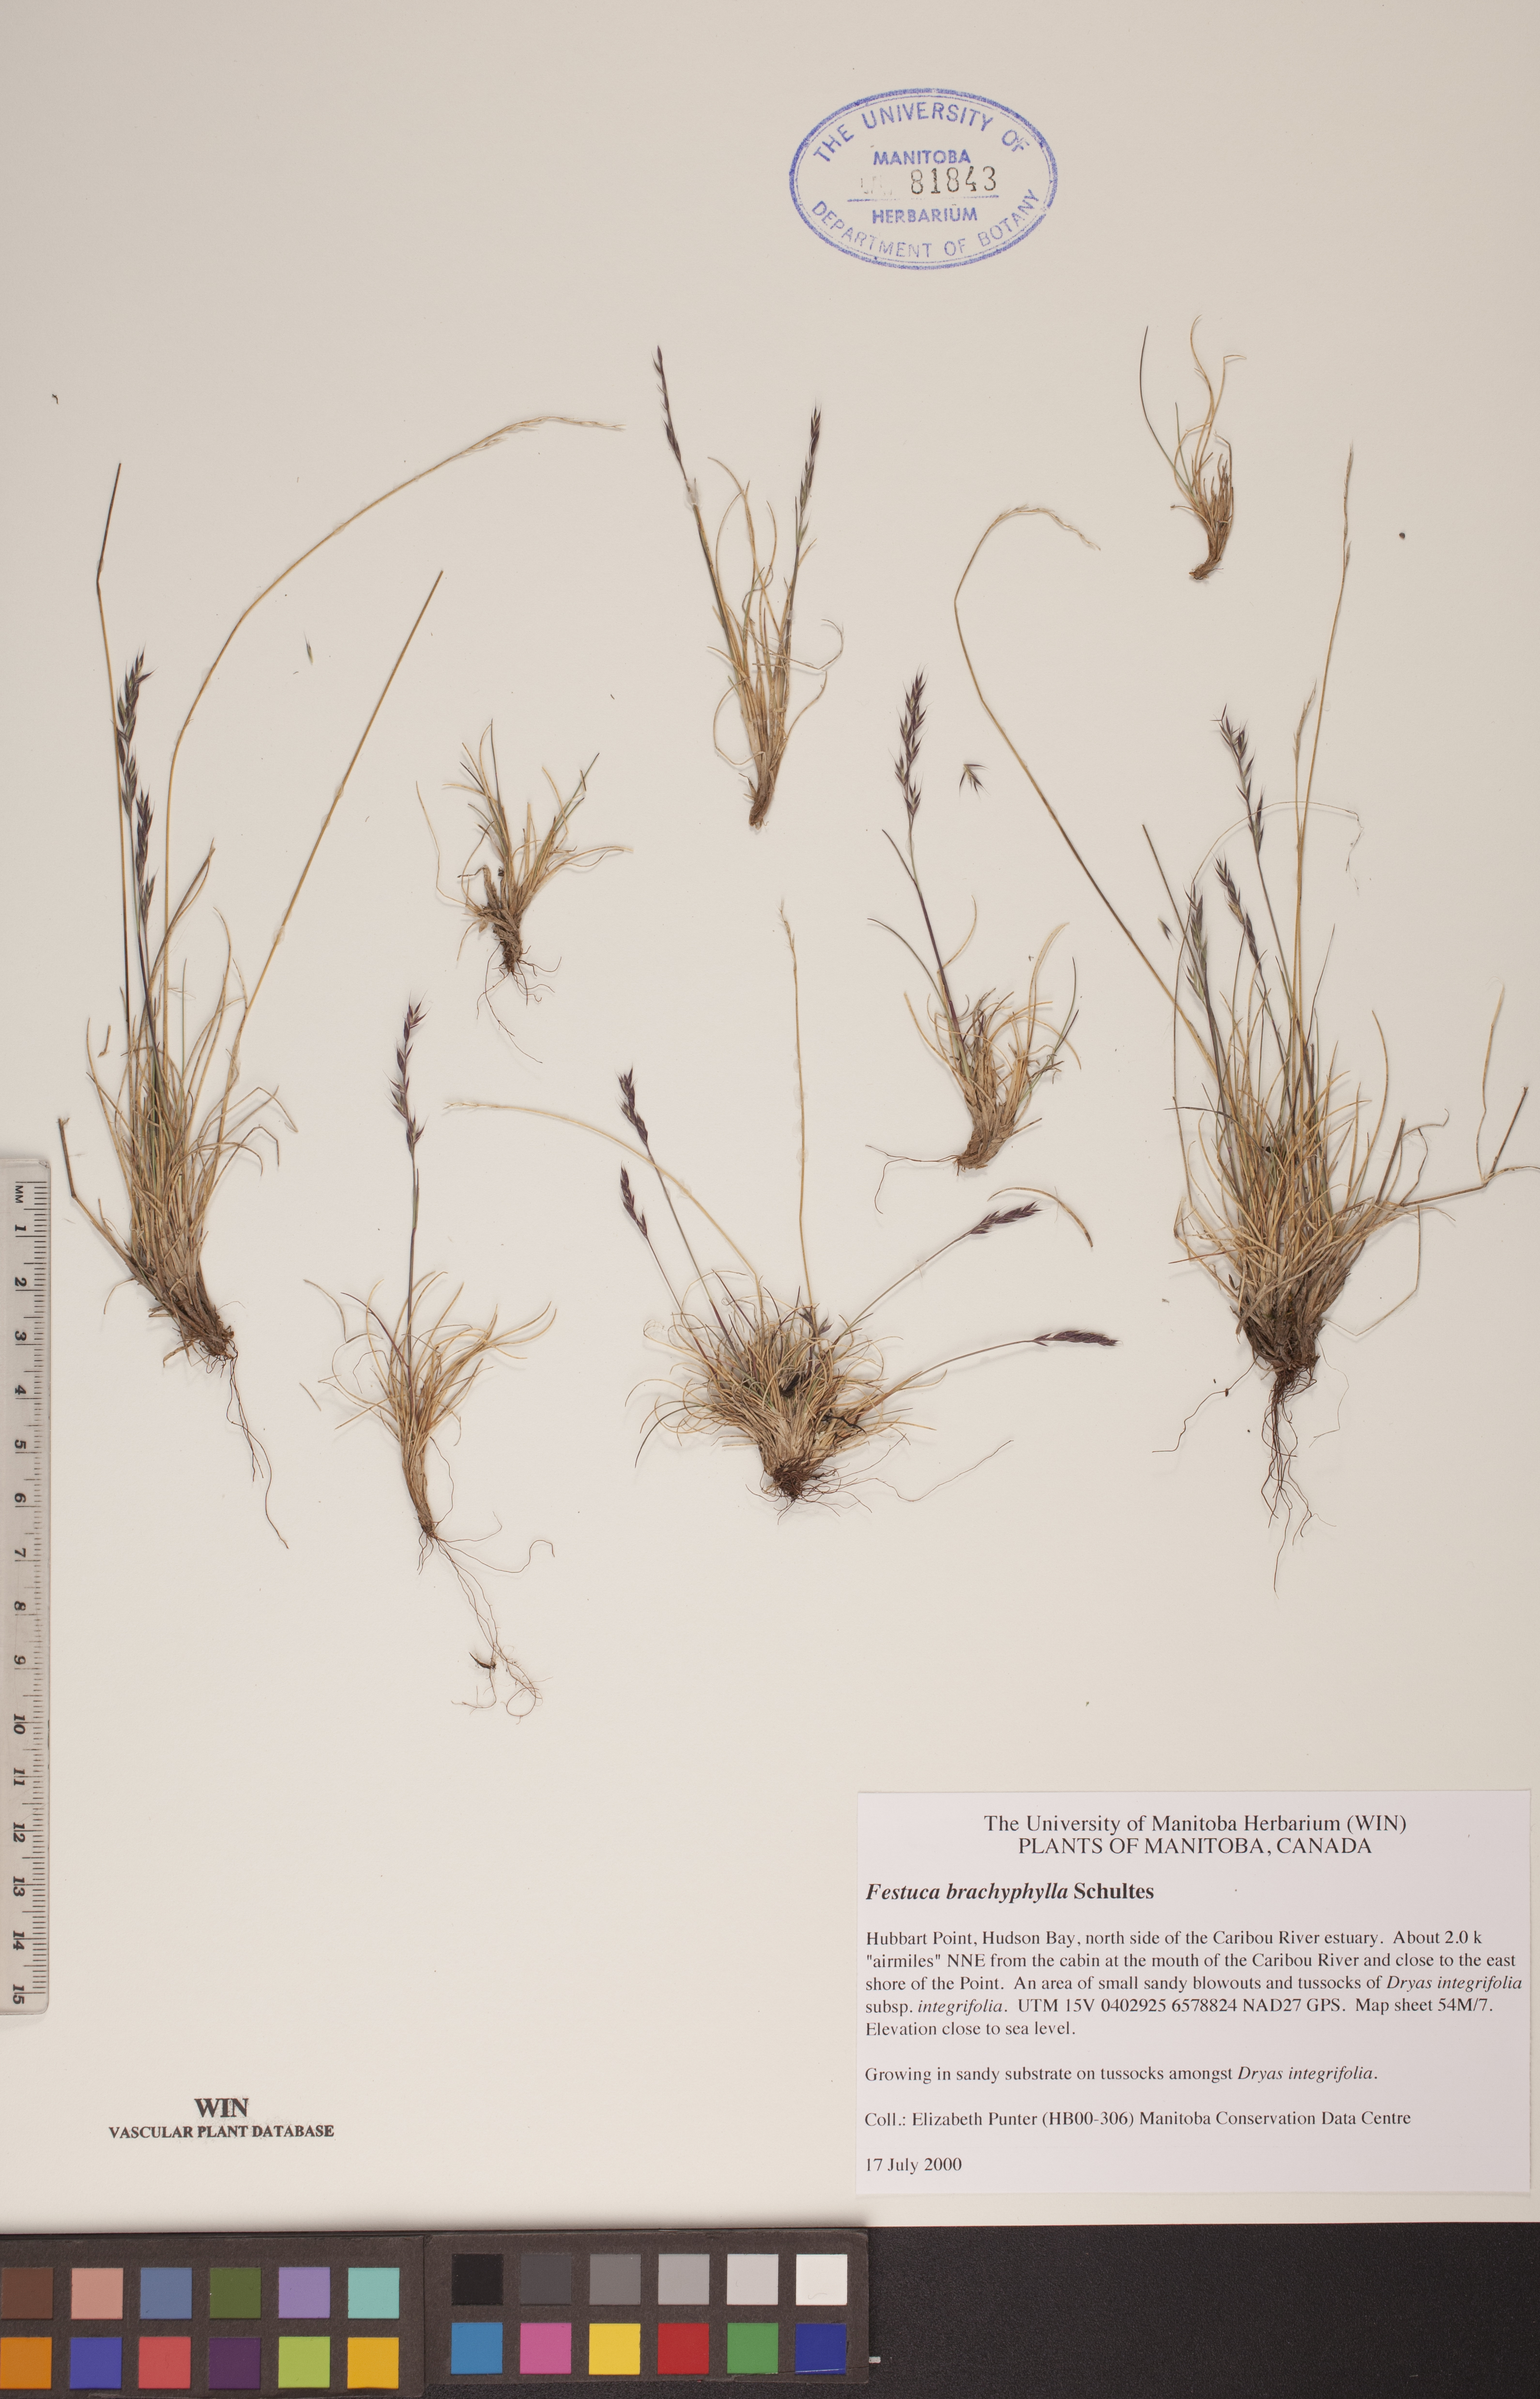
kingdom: Plantae
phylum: Tracheophyta
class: Liliopsida
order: Poales
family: Poaceae
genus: Festuca
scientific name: Festuca brachyphylla
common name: Alpine fescue
